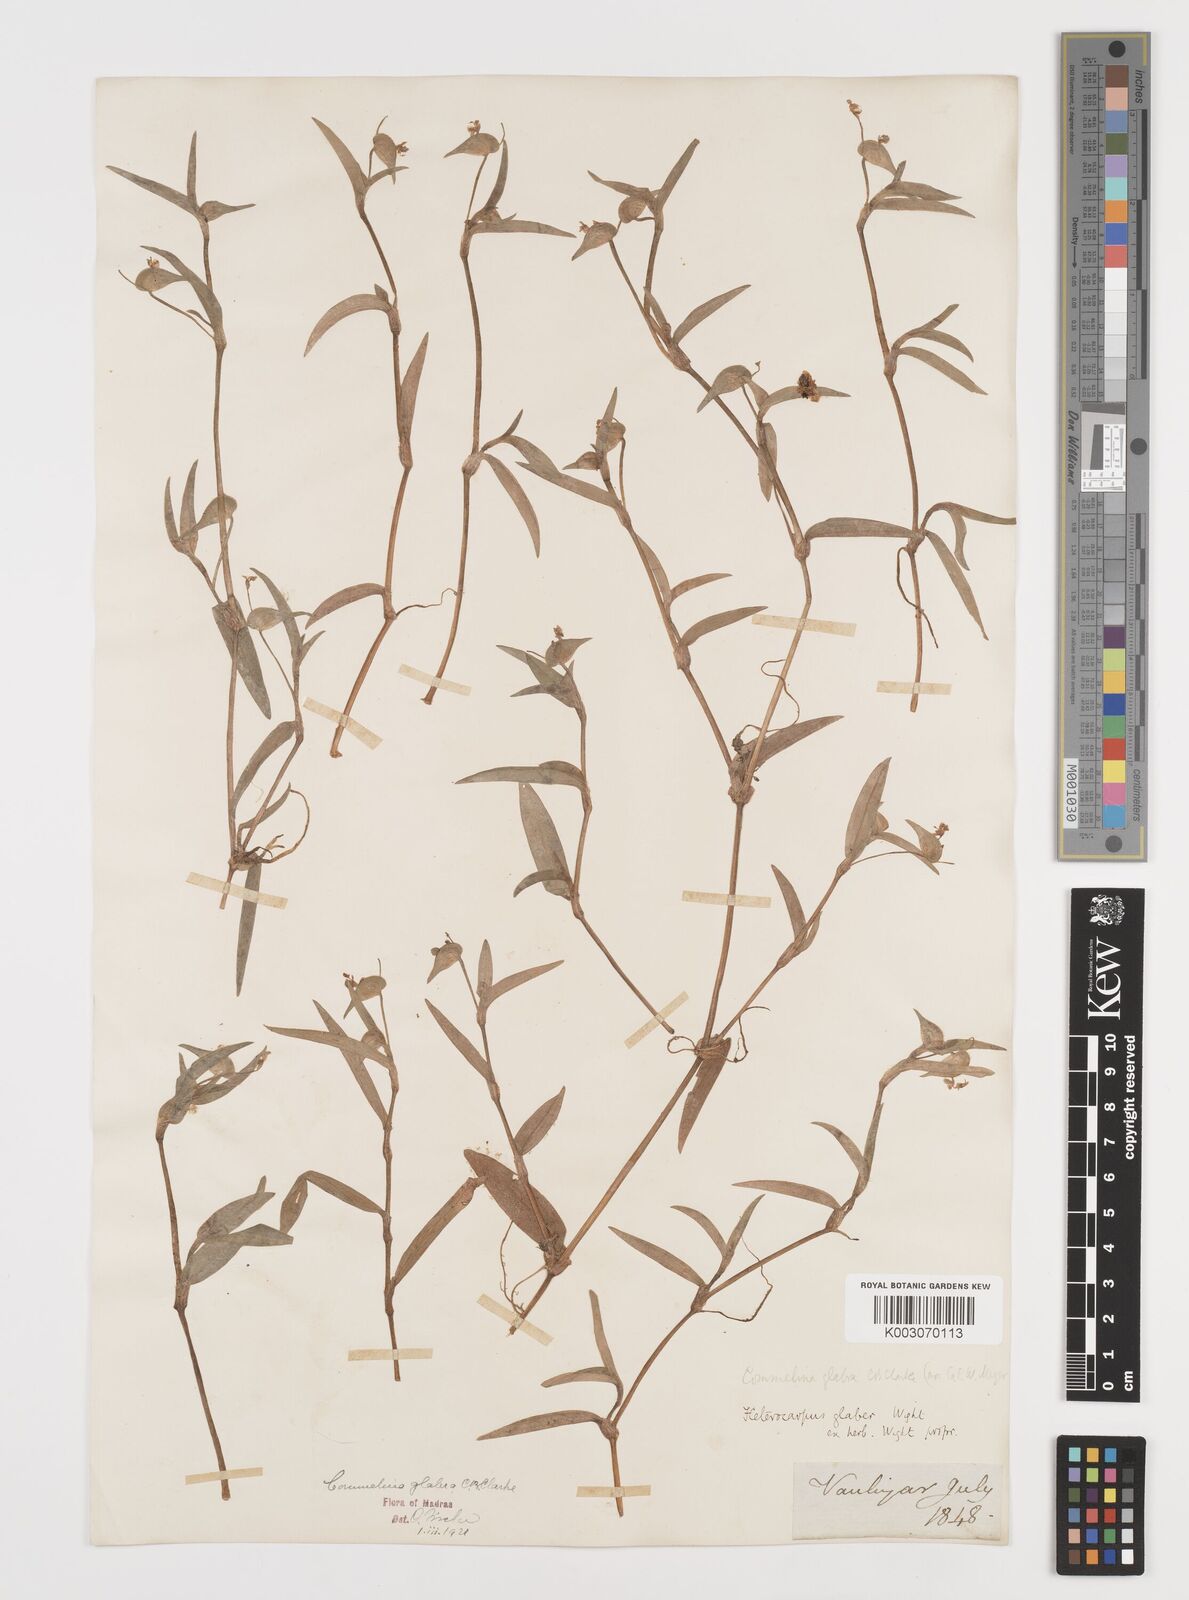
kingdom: Plantae
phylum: Tracheophyta
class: Liliopsida
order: Commelinales
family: Commelinaceae
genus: Commelina
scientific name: Commelina wightii
